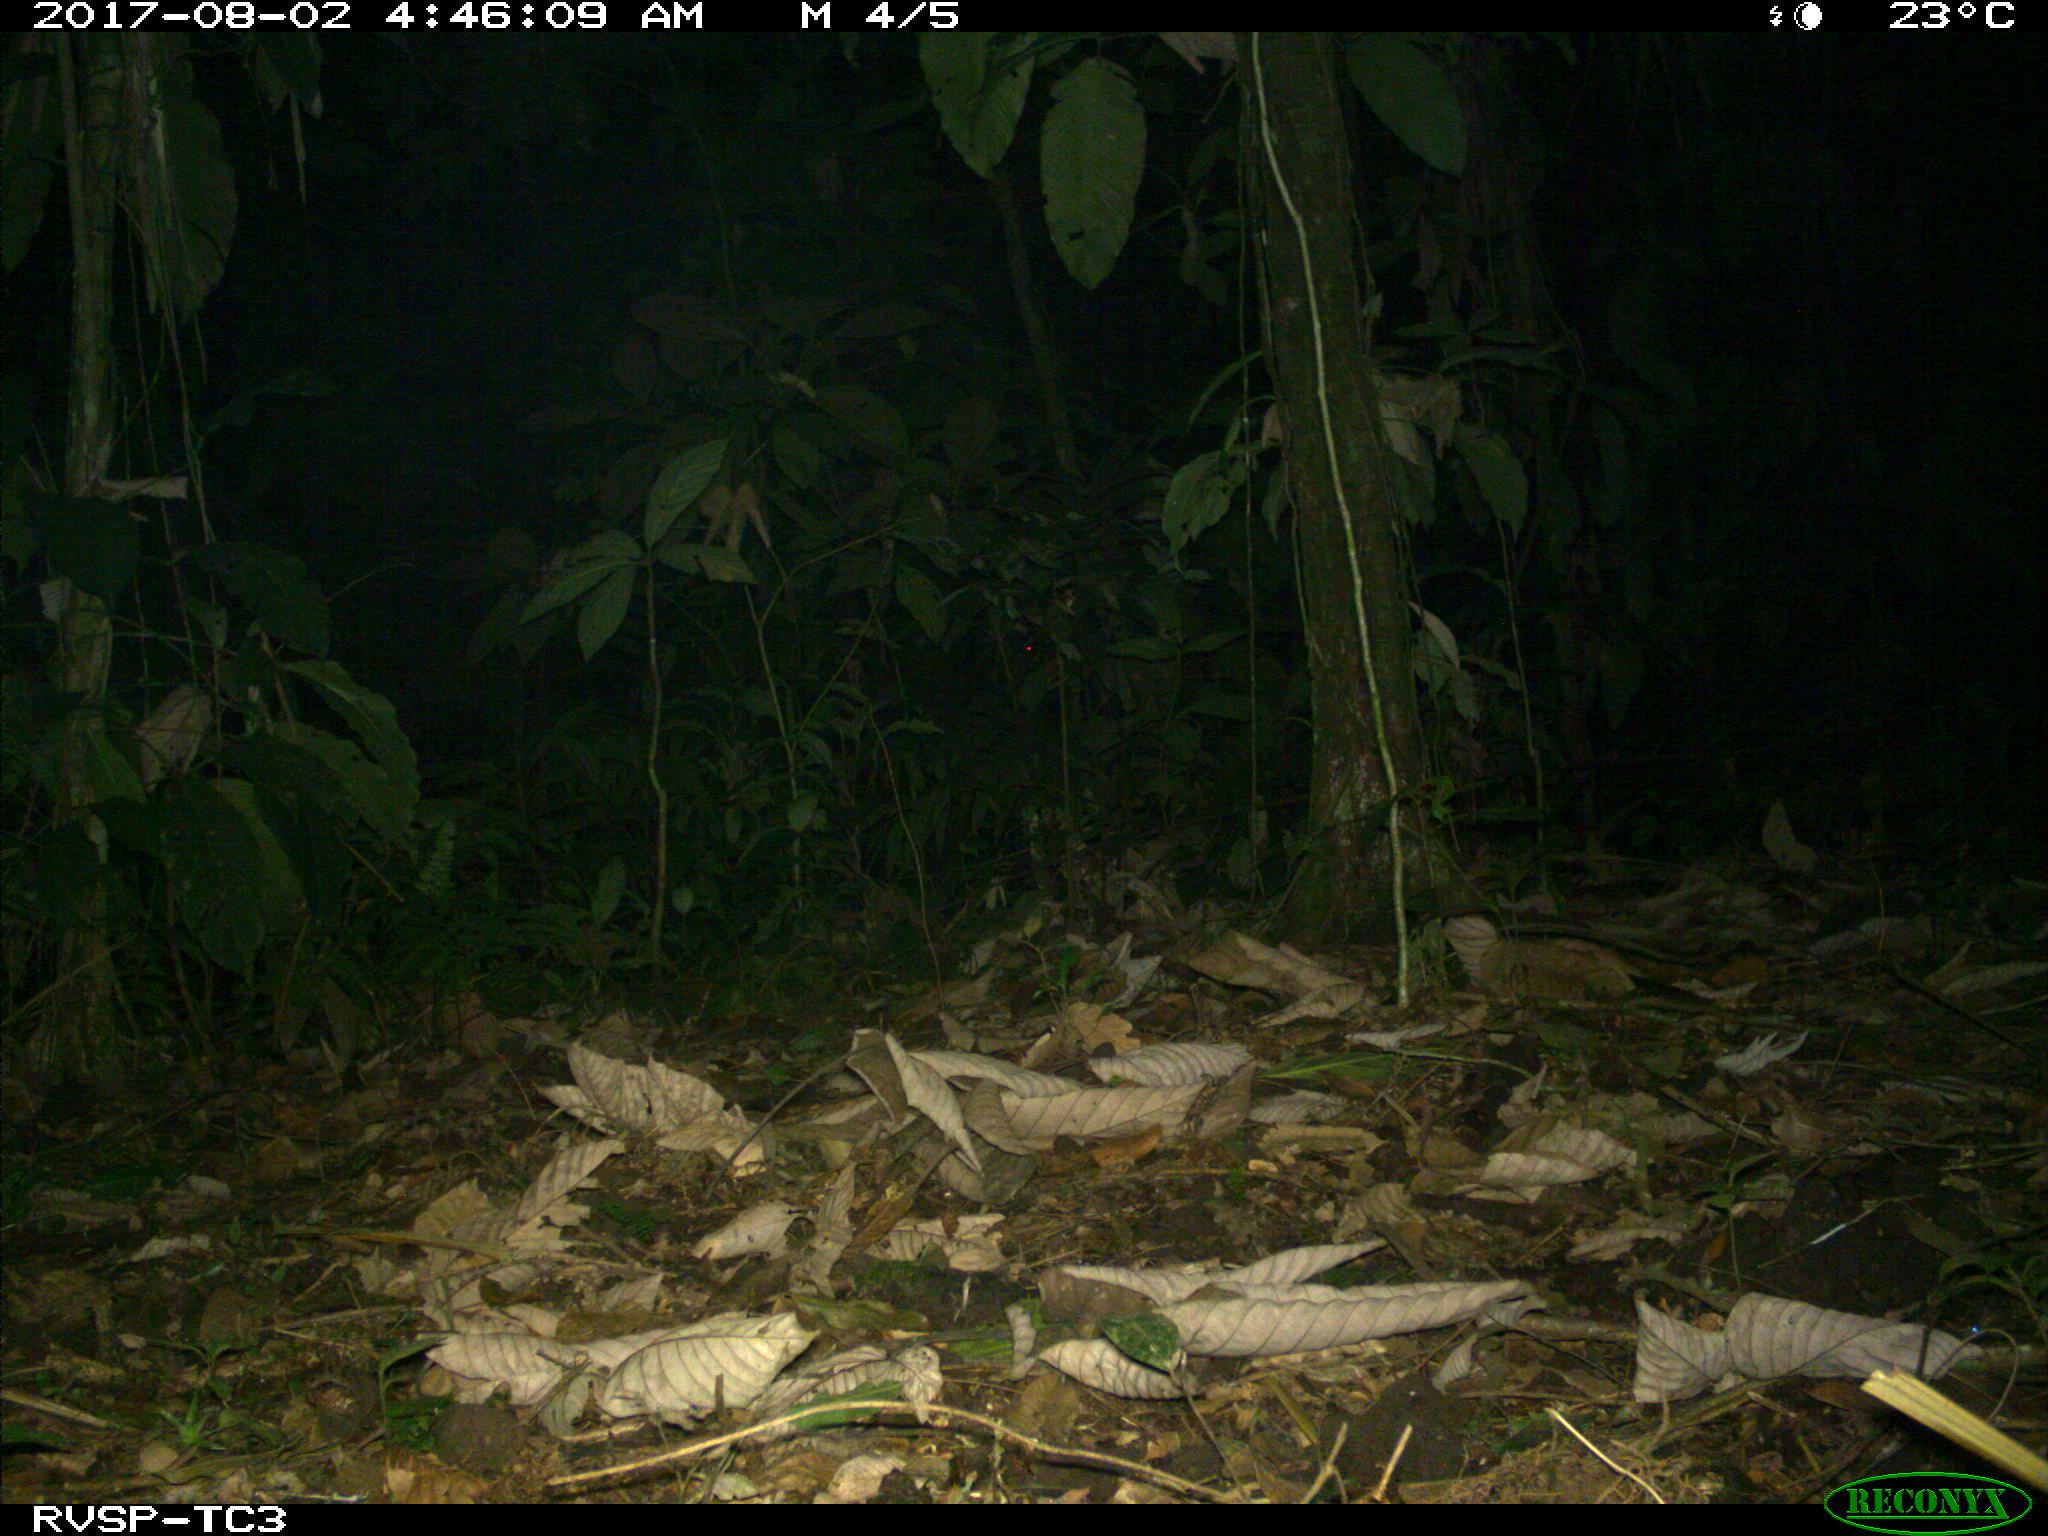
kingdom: Animalia
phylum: Chordata
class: Mammalia
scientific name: Mammalia
